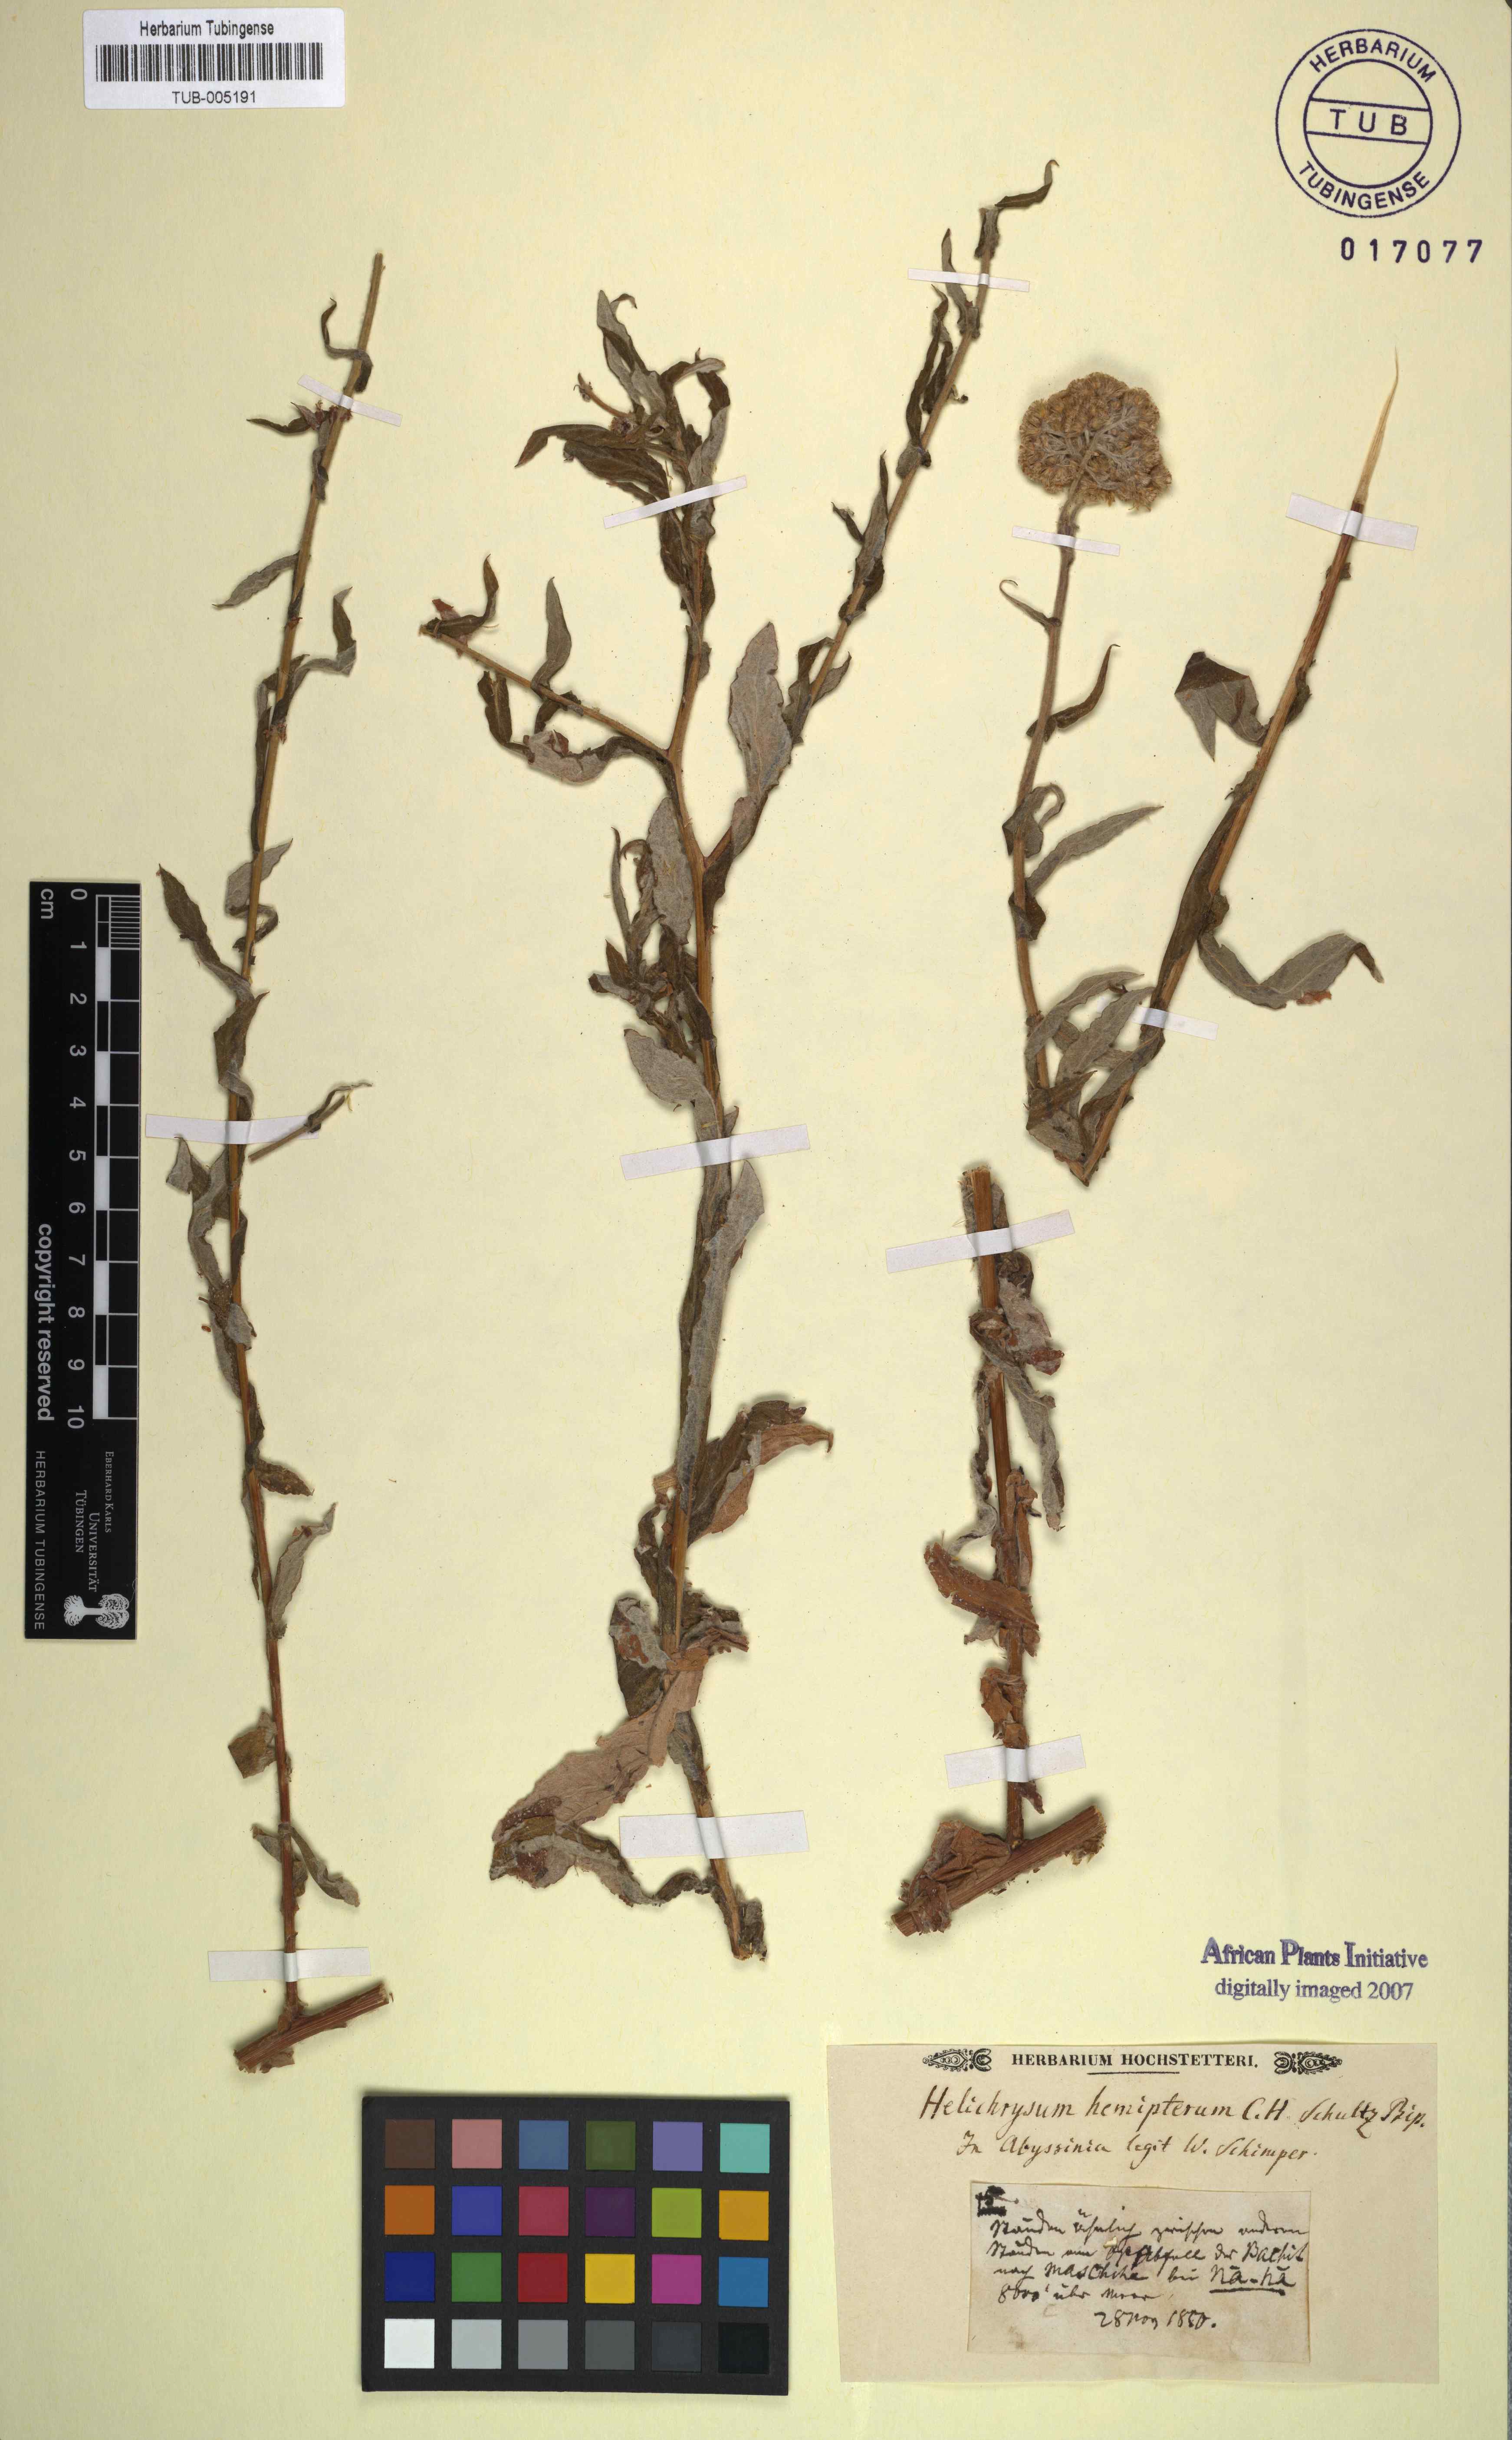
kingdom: Plantae
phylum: Tracheophyta
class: Magnoliopsida
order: Asterales
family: Asteraceae
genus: Helichrysum
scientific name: Helichrysum
